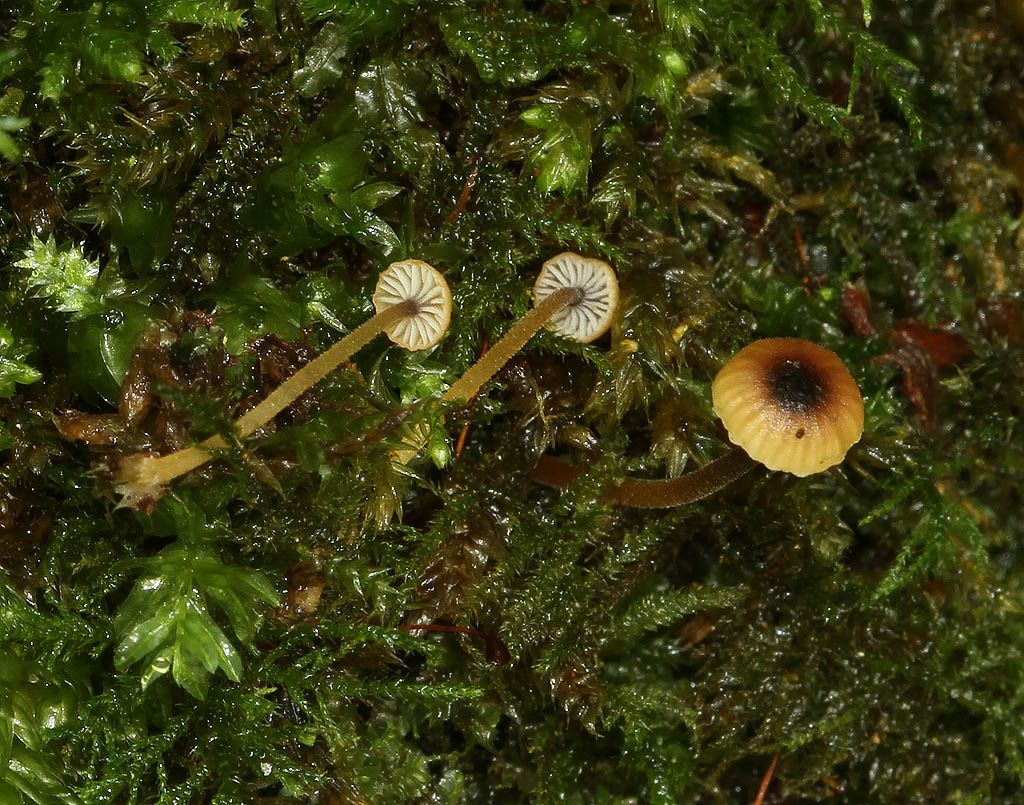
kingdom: Fungi
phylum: Basidiomycota
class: Agaricomycetes
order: Hymenochaetales
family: Rickenellaceae
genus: Rickenella
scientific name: Rickenella swartzii
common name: finstokket mosnavlehat
